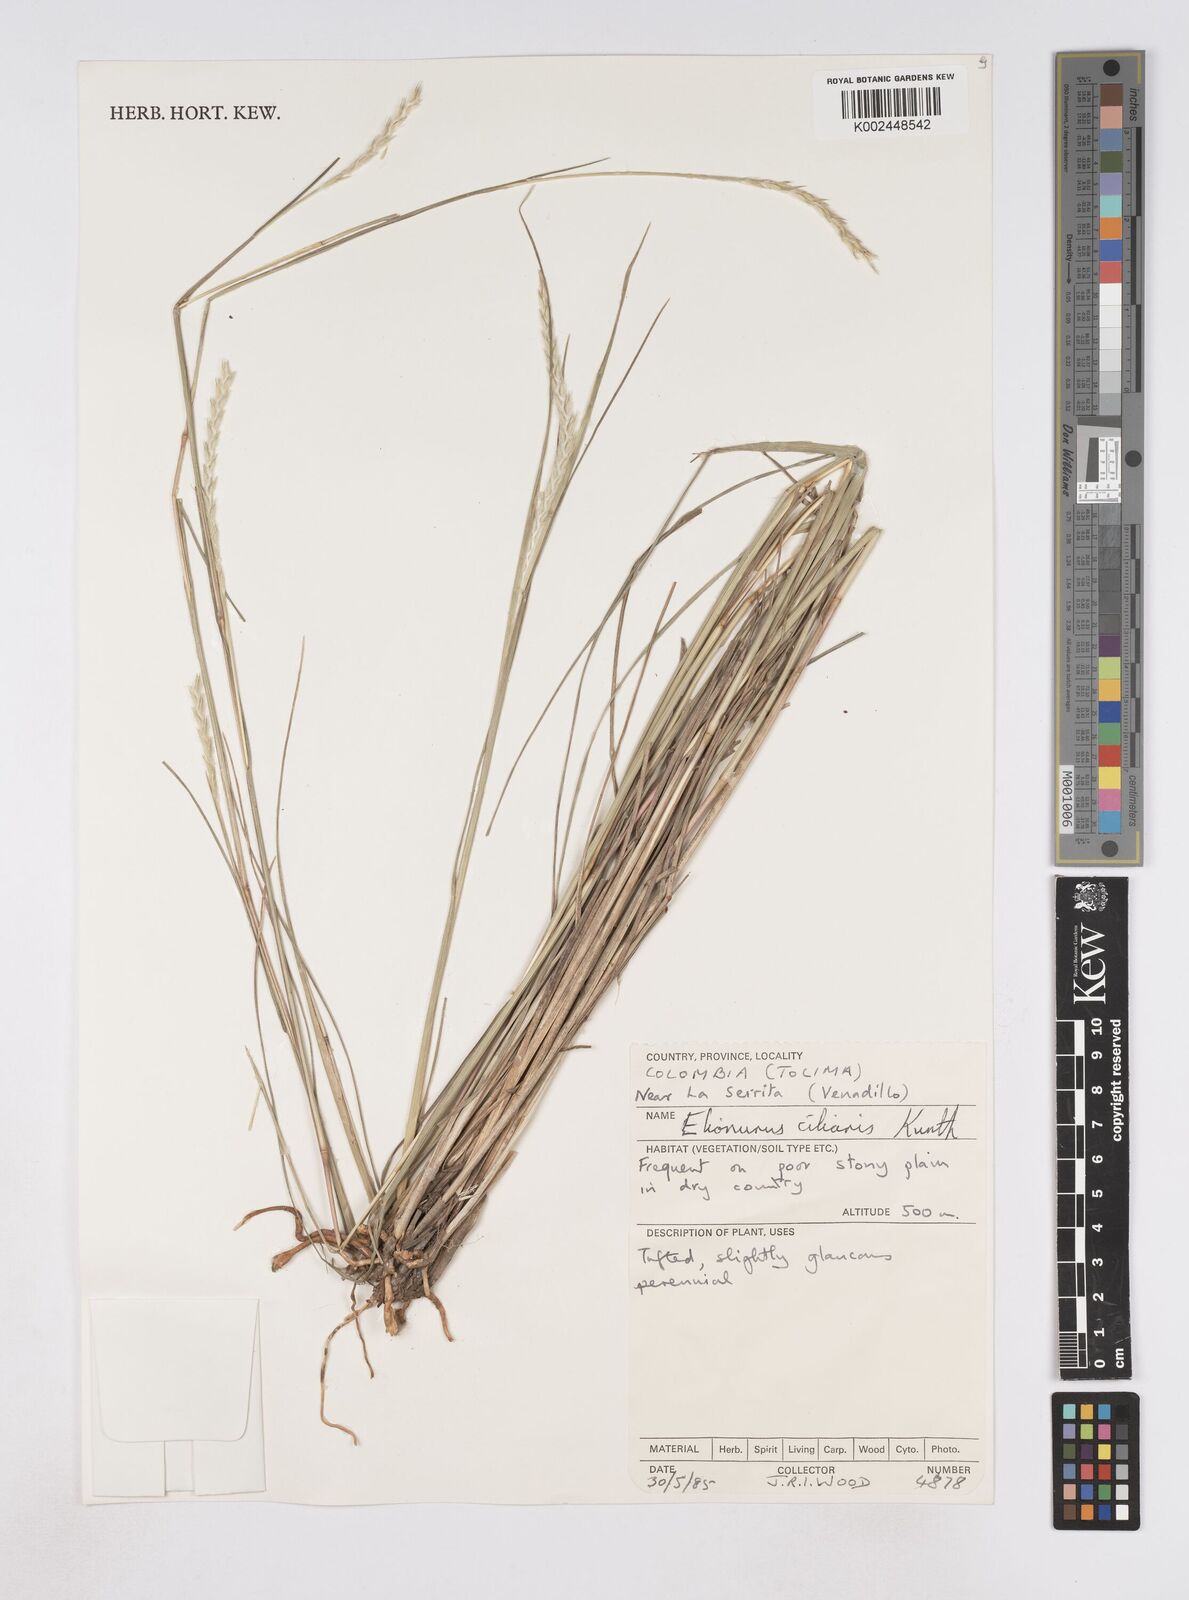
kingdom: Plantae
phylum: Tracheophyta
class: Liliopsida
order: Poales
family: Poaceae
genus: Elionurus
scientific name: Elionurus muticus
